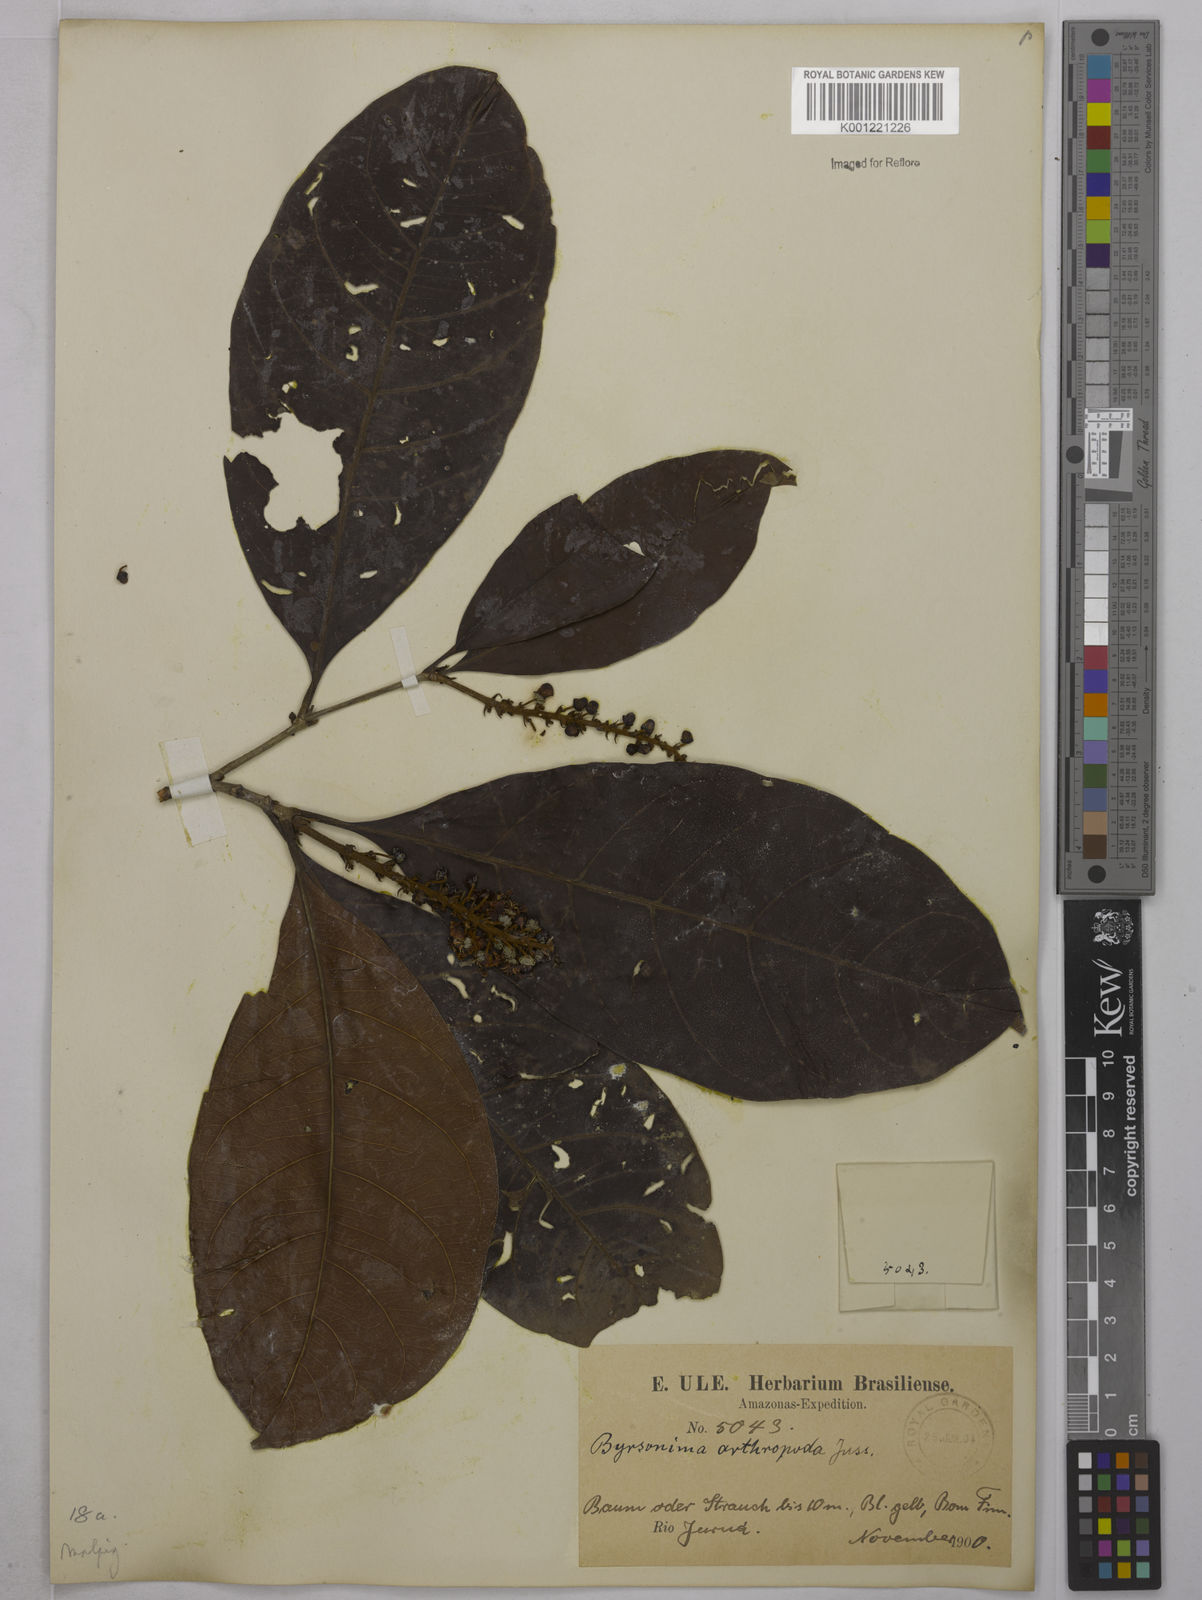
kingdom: Plantae
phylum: Tracheophyta
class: Magnoliopsida
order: Malpighiales
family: Malpighiaceae
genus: Byrsonima
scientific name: Byrsonima arthropoda
